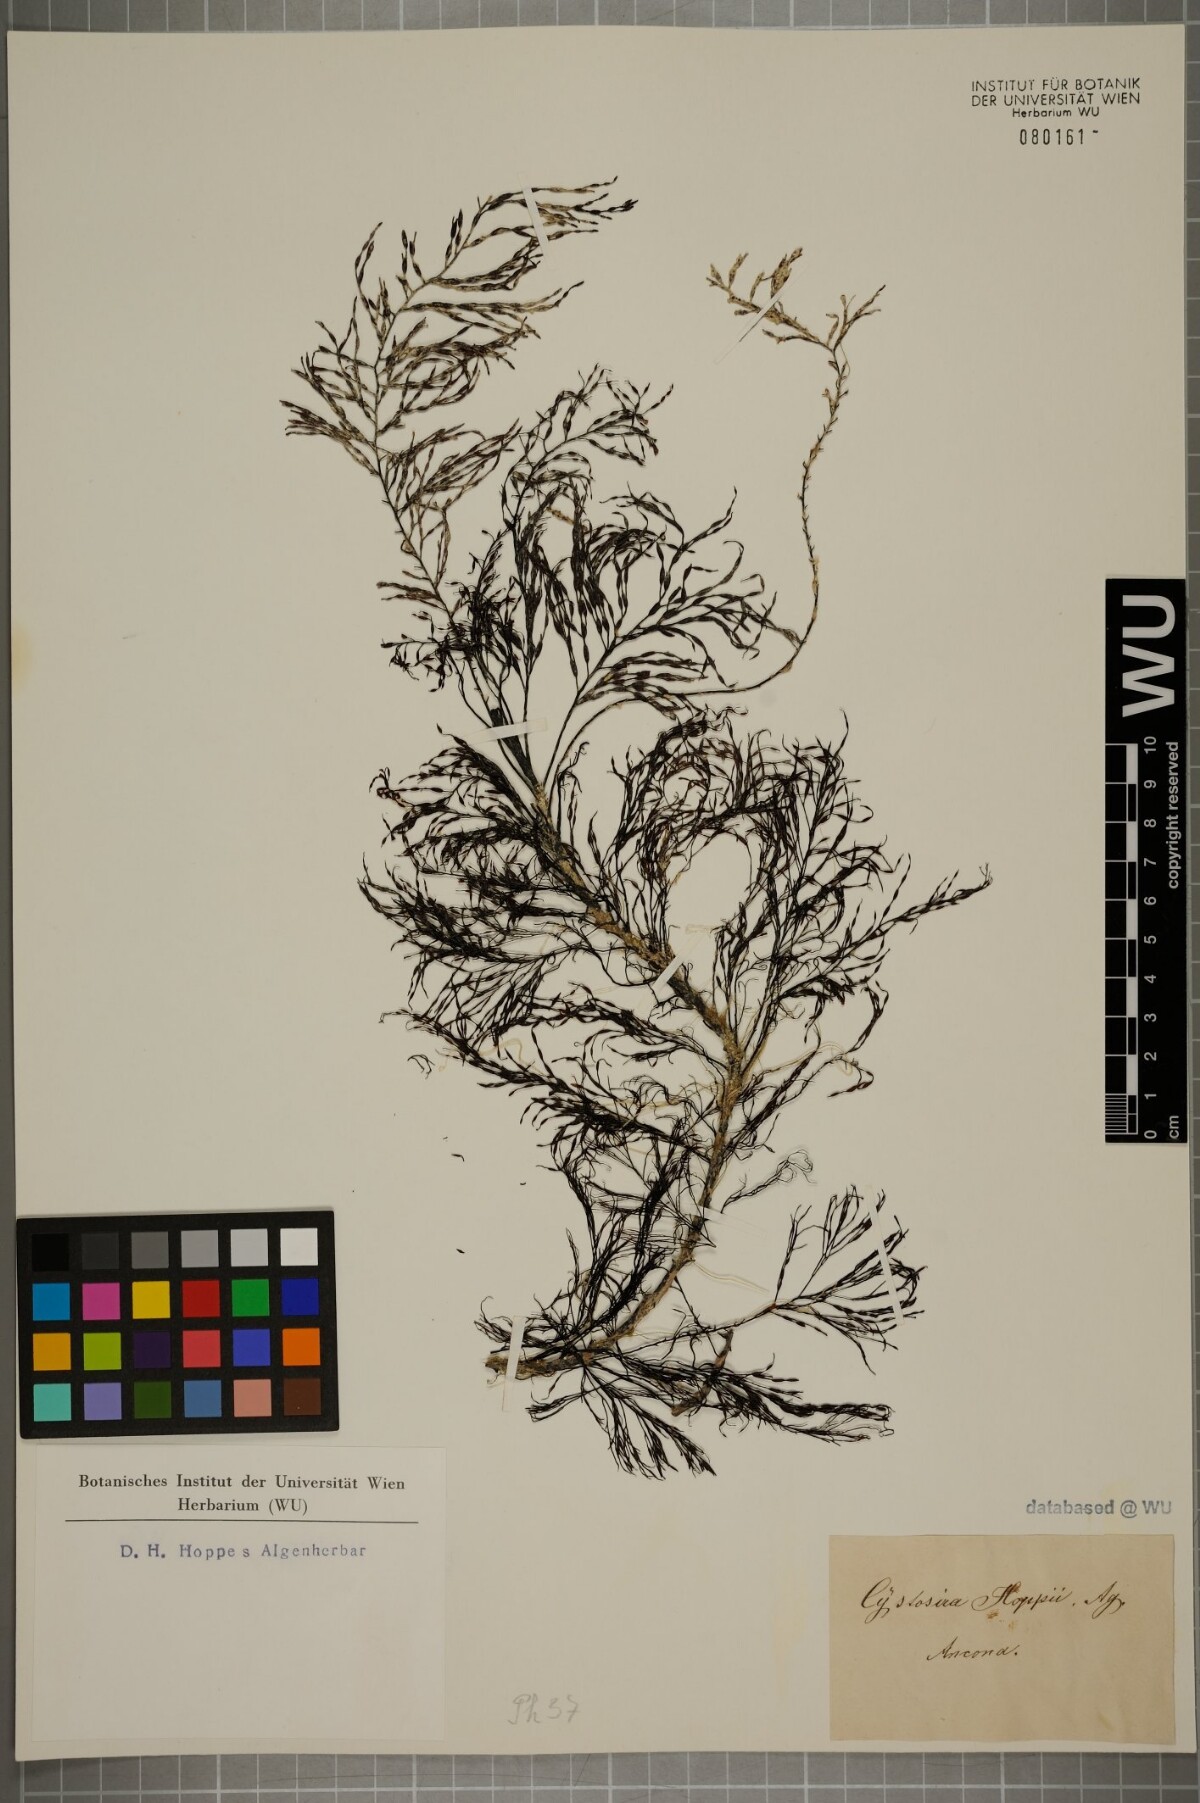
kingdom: Chromista
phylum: Ochrophyta
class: Phaeophyceae
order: Fucales
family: Sargassaceae
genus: Cystoseira
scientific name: Cystoseira Gongolaria barbata
